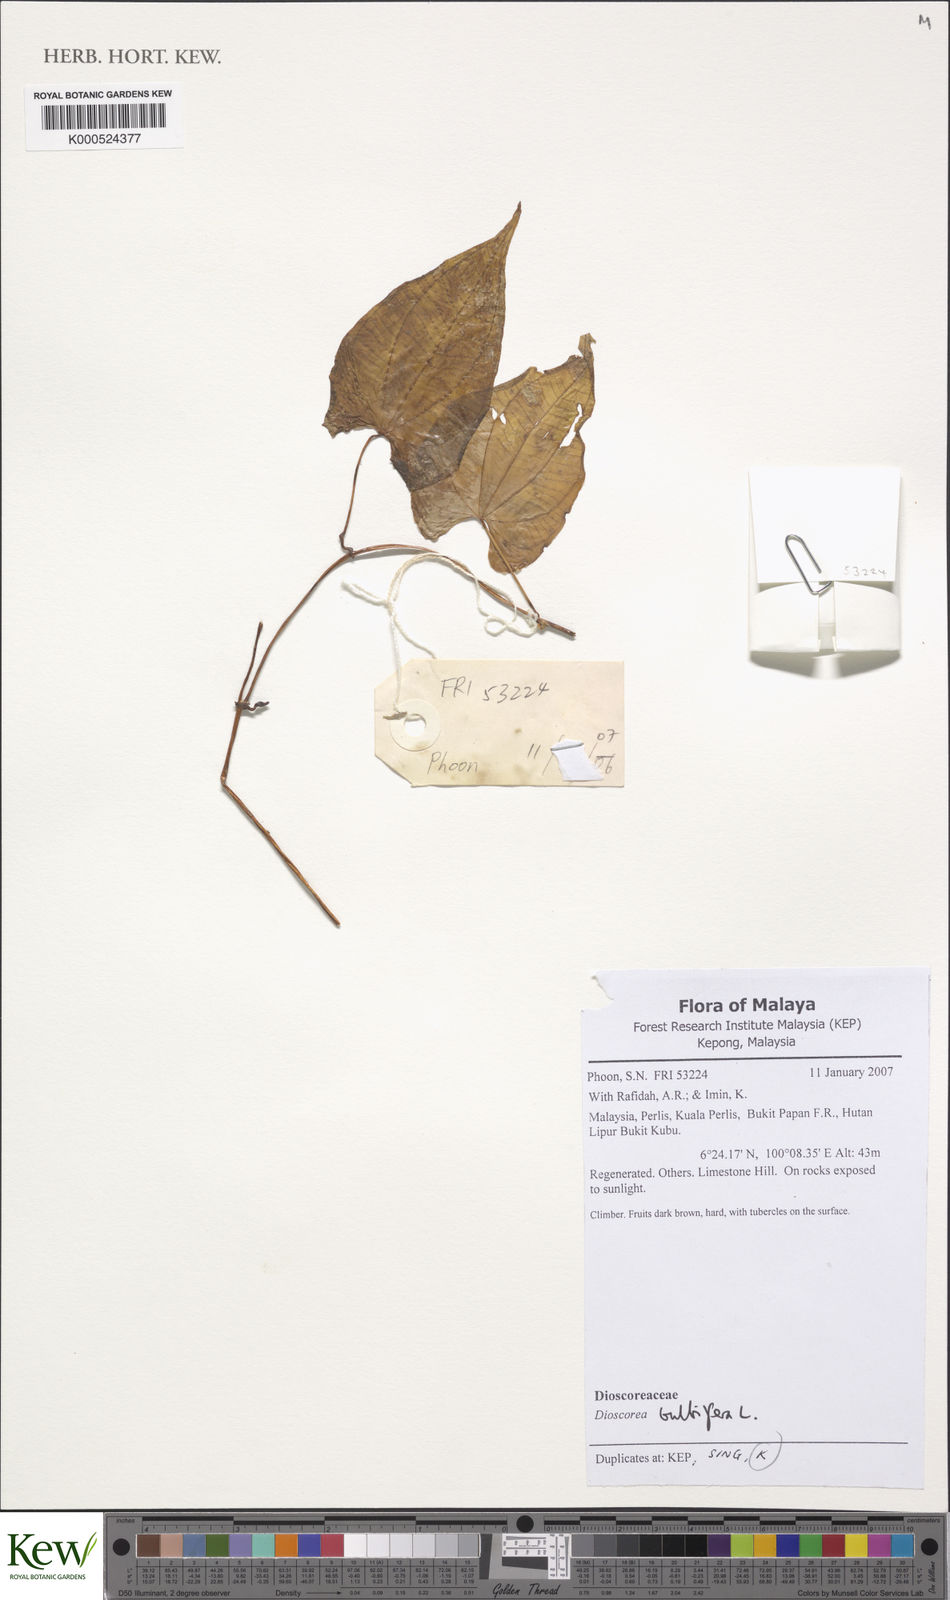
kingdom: Plantae
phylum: Tracheophyta
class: Liliopsida
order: Dioscoreales
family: Dioscoreaceae
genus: Dioscorea
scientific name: Dioscorea bulbifera
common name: Air yam
